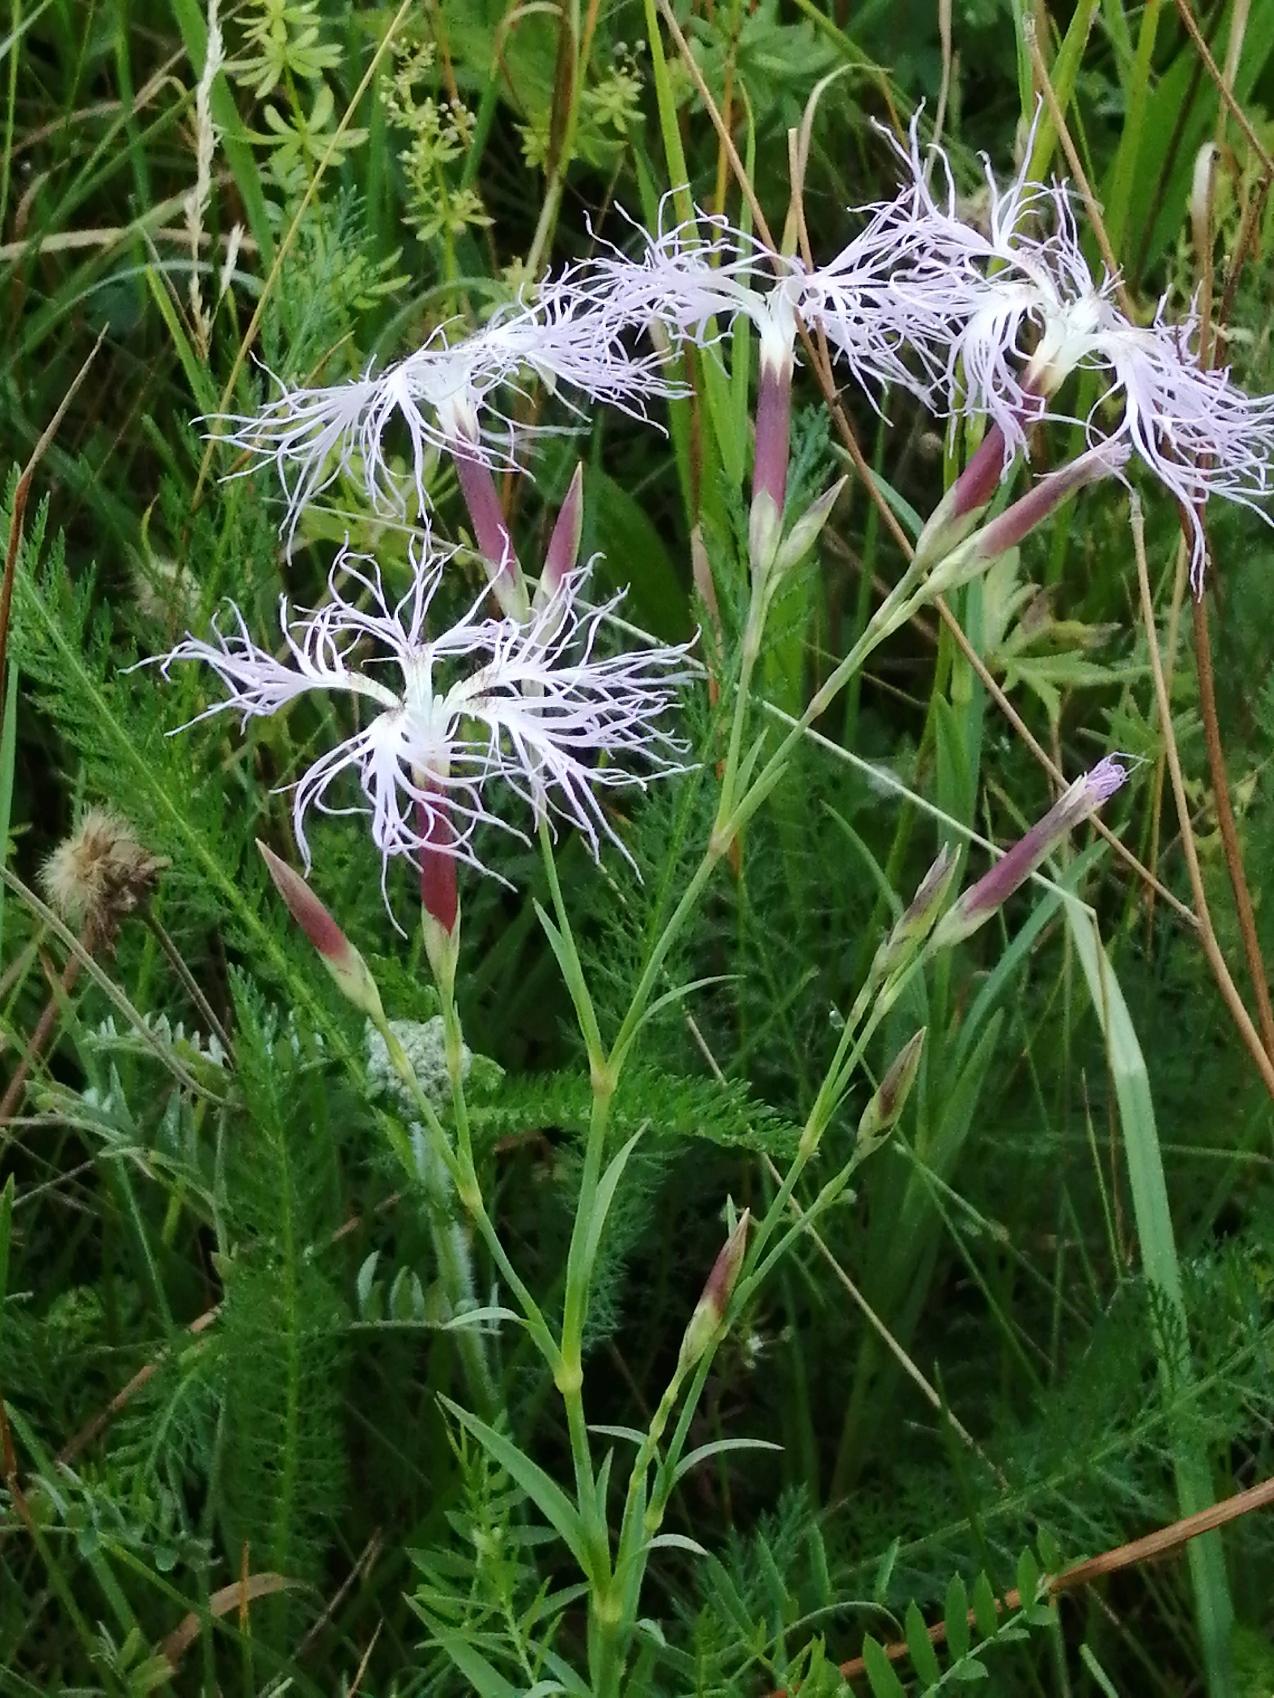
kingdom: Plantae
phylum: Tracheophyta
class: Magnoliopsida
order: Caryophyllales
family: Caryophyllaceae
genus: Dianthus
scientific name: Dianthus superbus
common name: Strand-nellike
